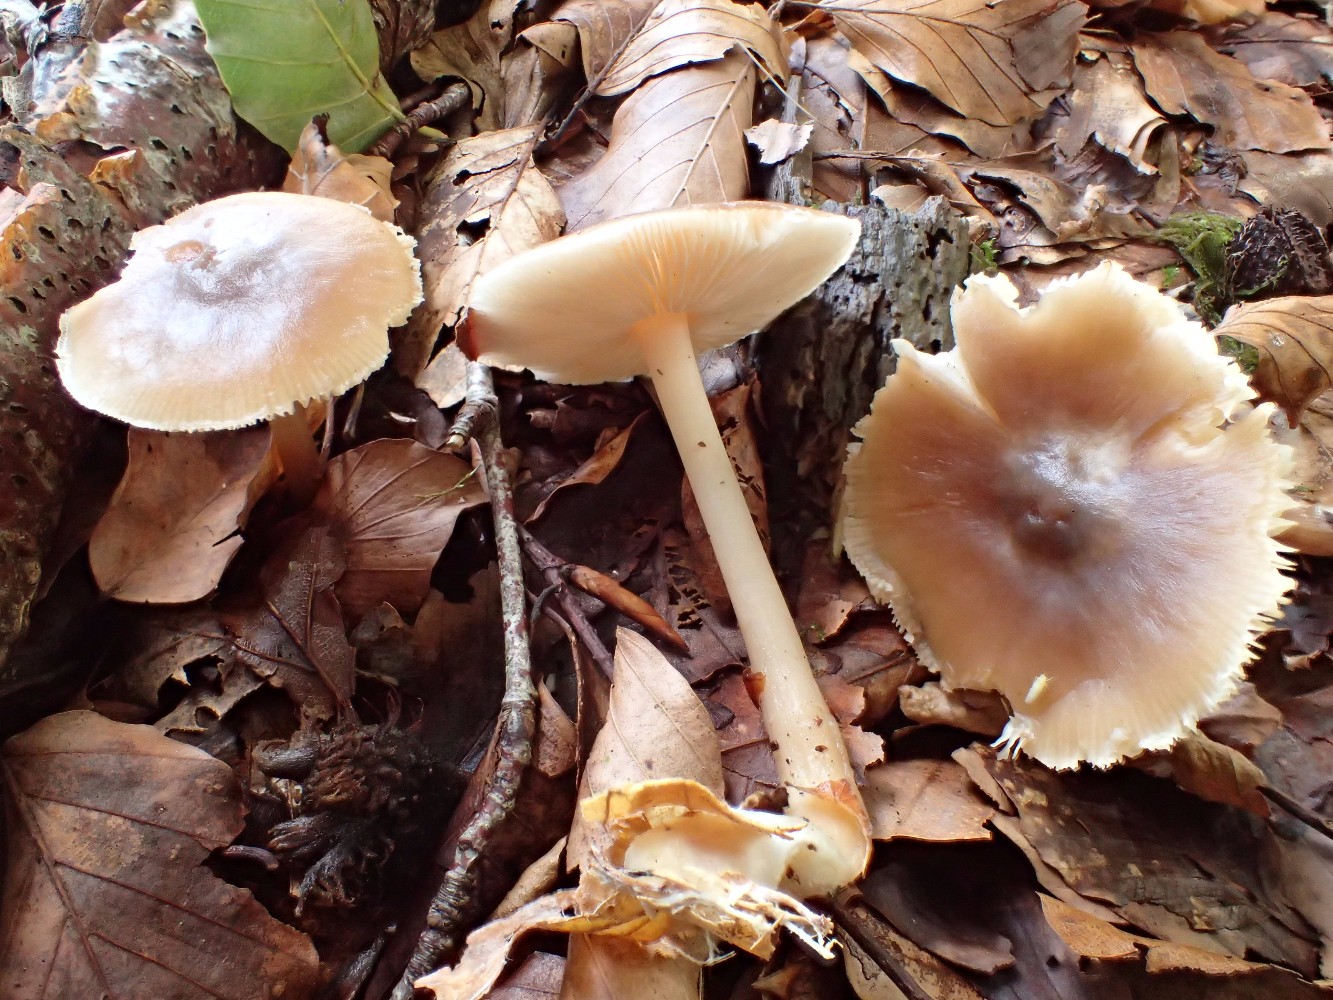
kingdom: Fungi
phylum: Basidiomycota
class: Agaricomycetes
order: Agaricales
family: Omphalotaceae
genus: Rhodocollybia
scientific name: Rhodocollybia asema
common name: horngrå fladhat
